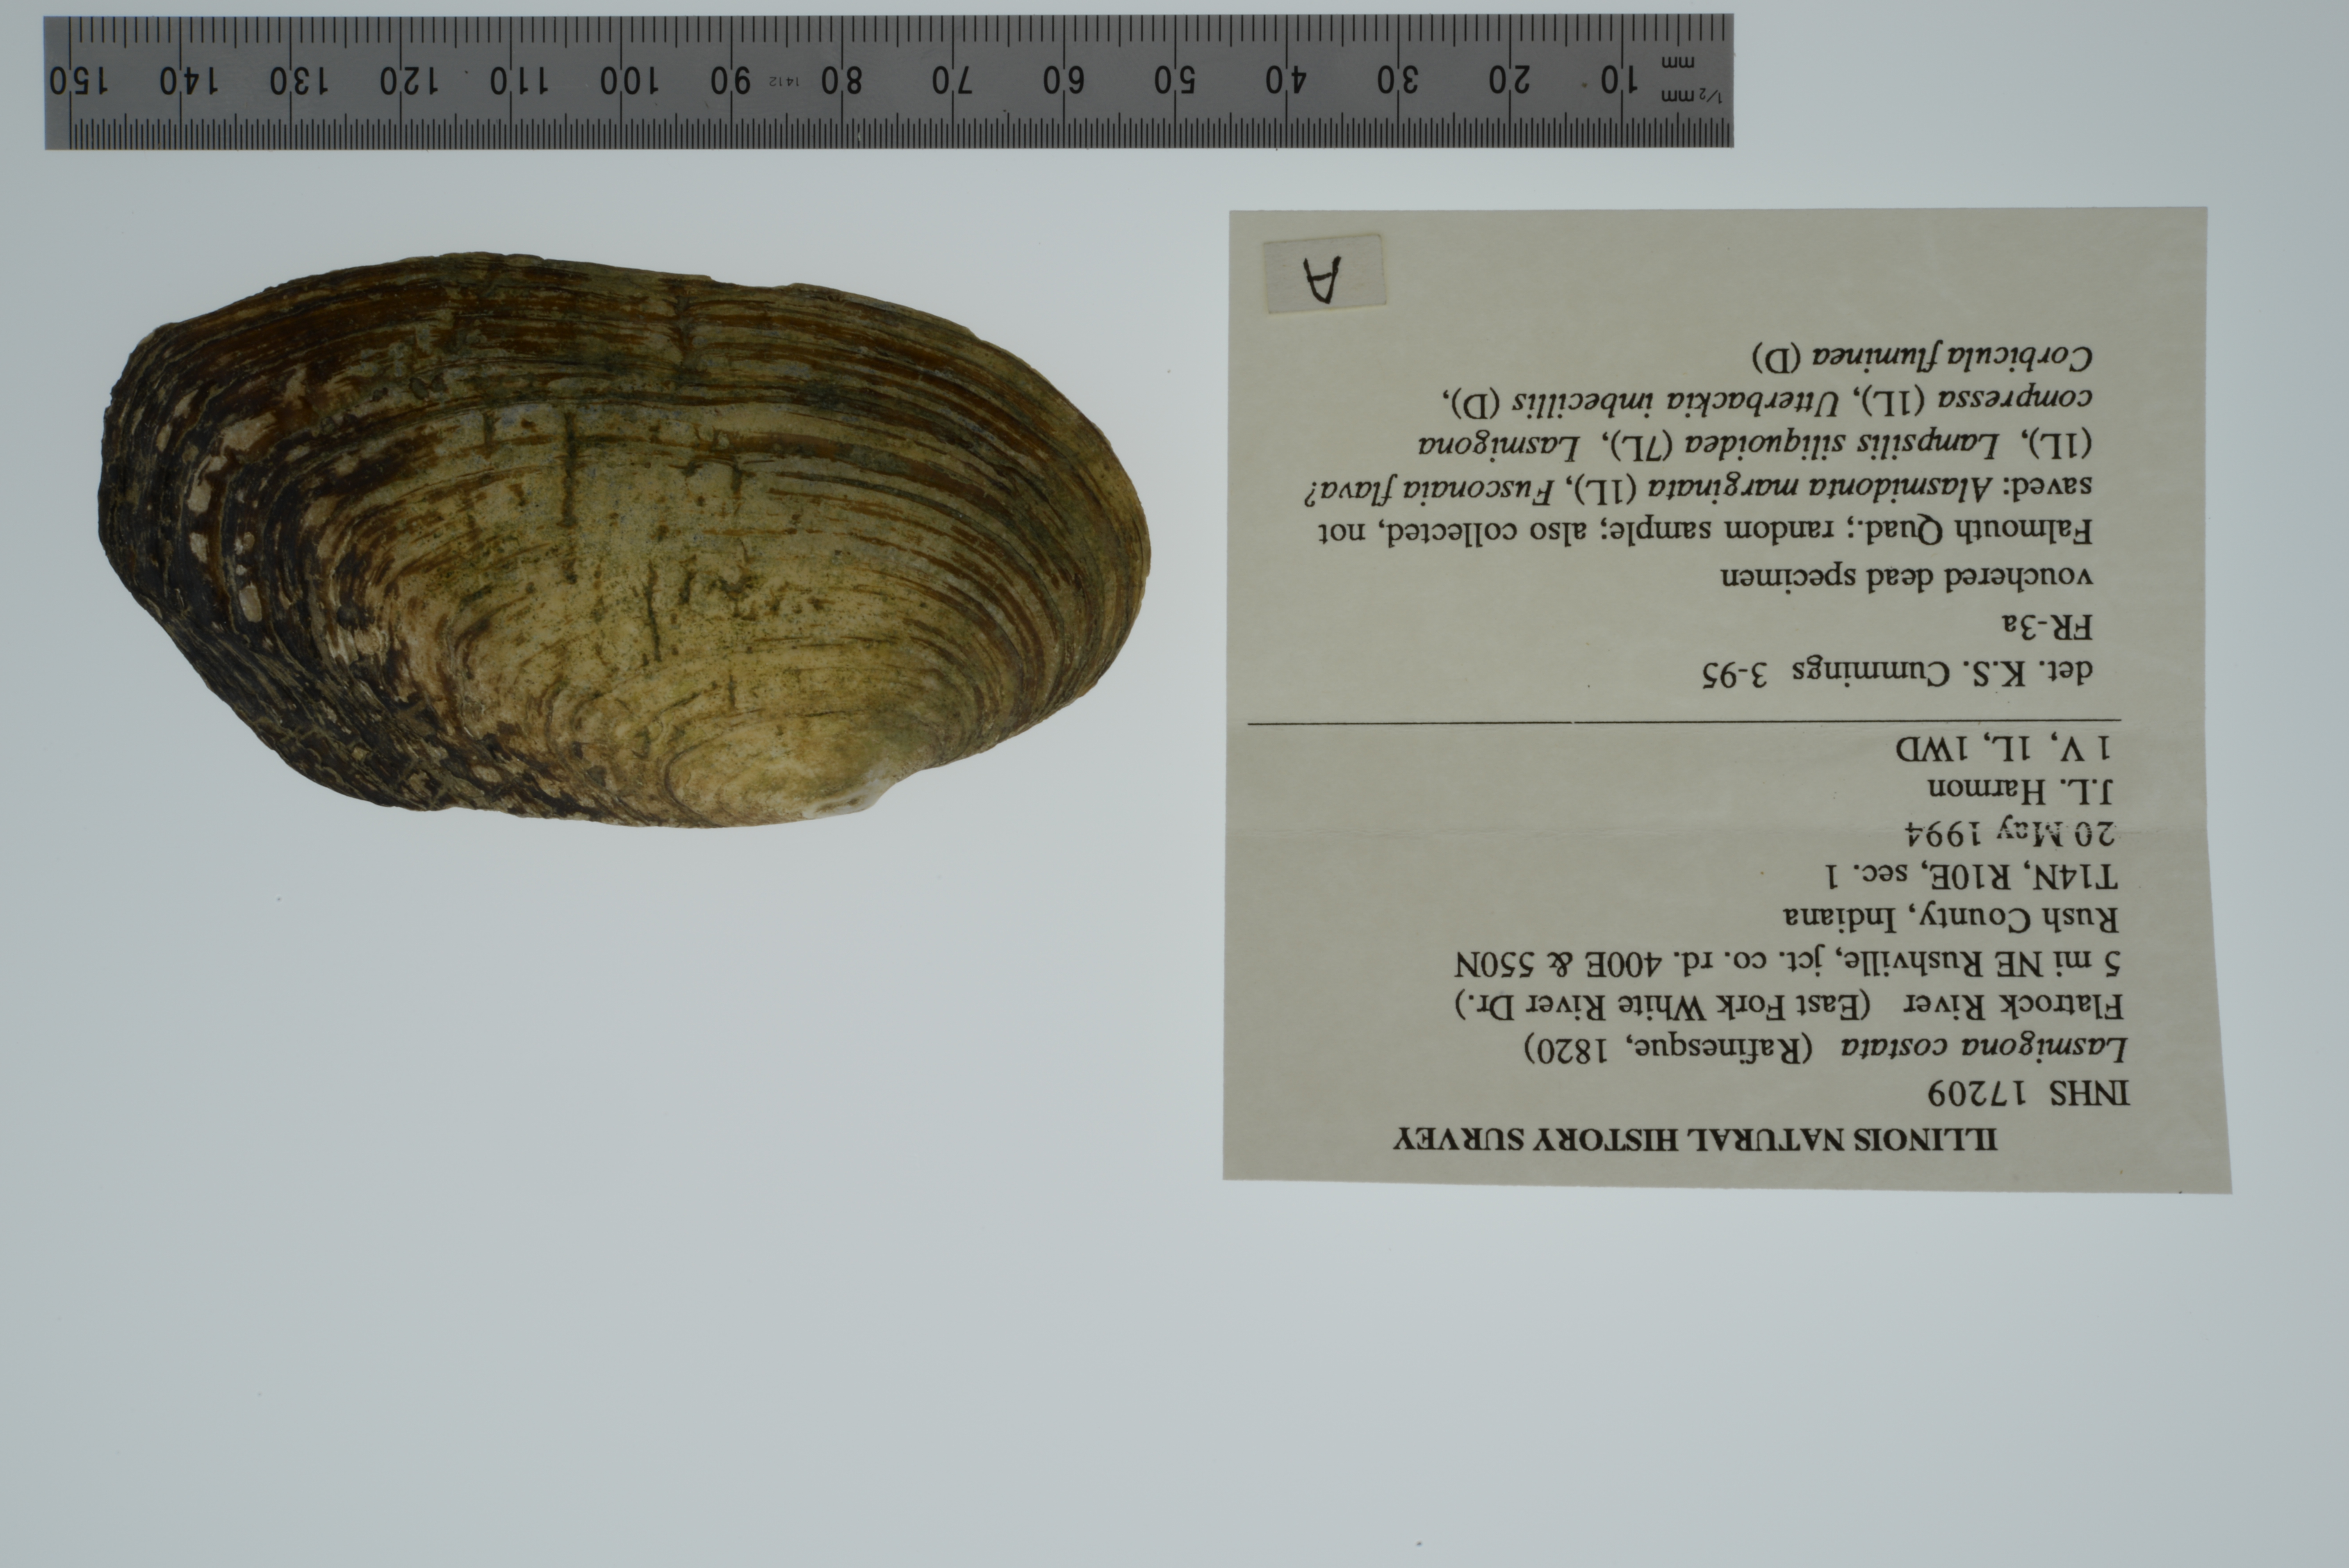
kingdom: Animalia
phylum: Mollusca
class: Bivalvia
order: Unionida
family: Unionidae
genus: Lasmigona
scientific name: Lasmigona costata
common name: Flutedshell
